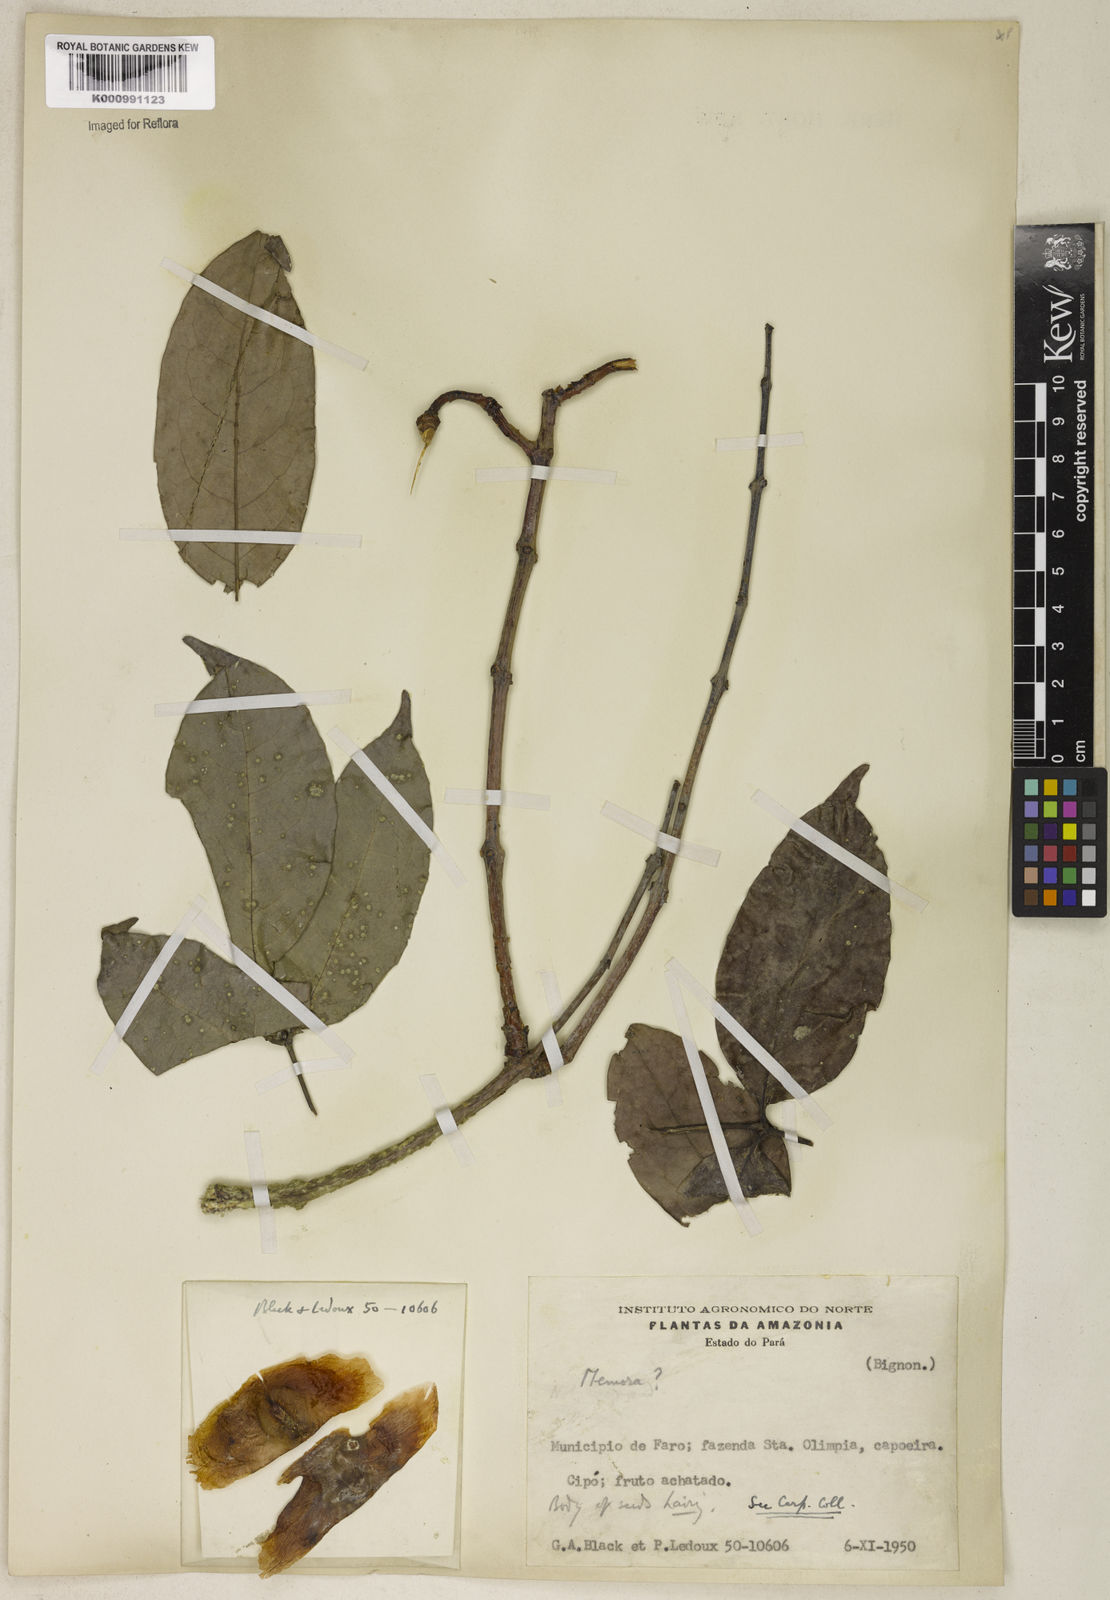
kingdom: Plantae
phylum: Tracheophyta
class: Magnoliopsida
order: Lamiales
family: Bignoniaceae
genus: Adenocalymma
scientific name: Adenocalymma
